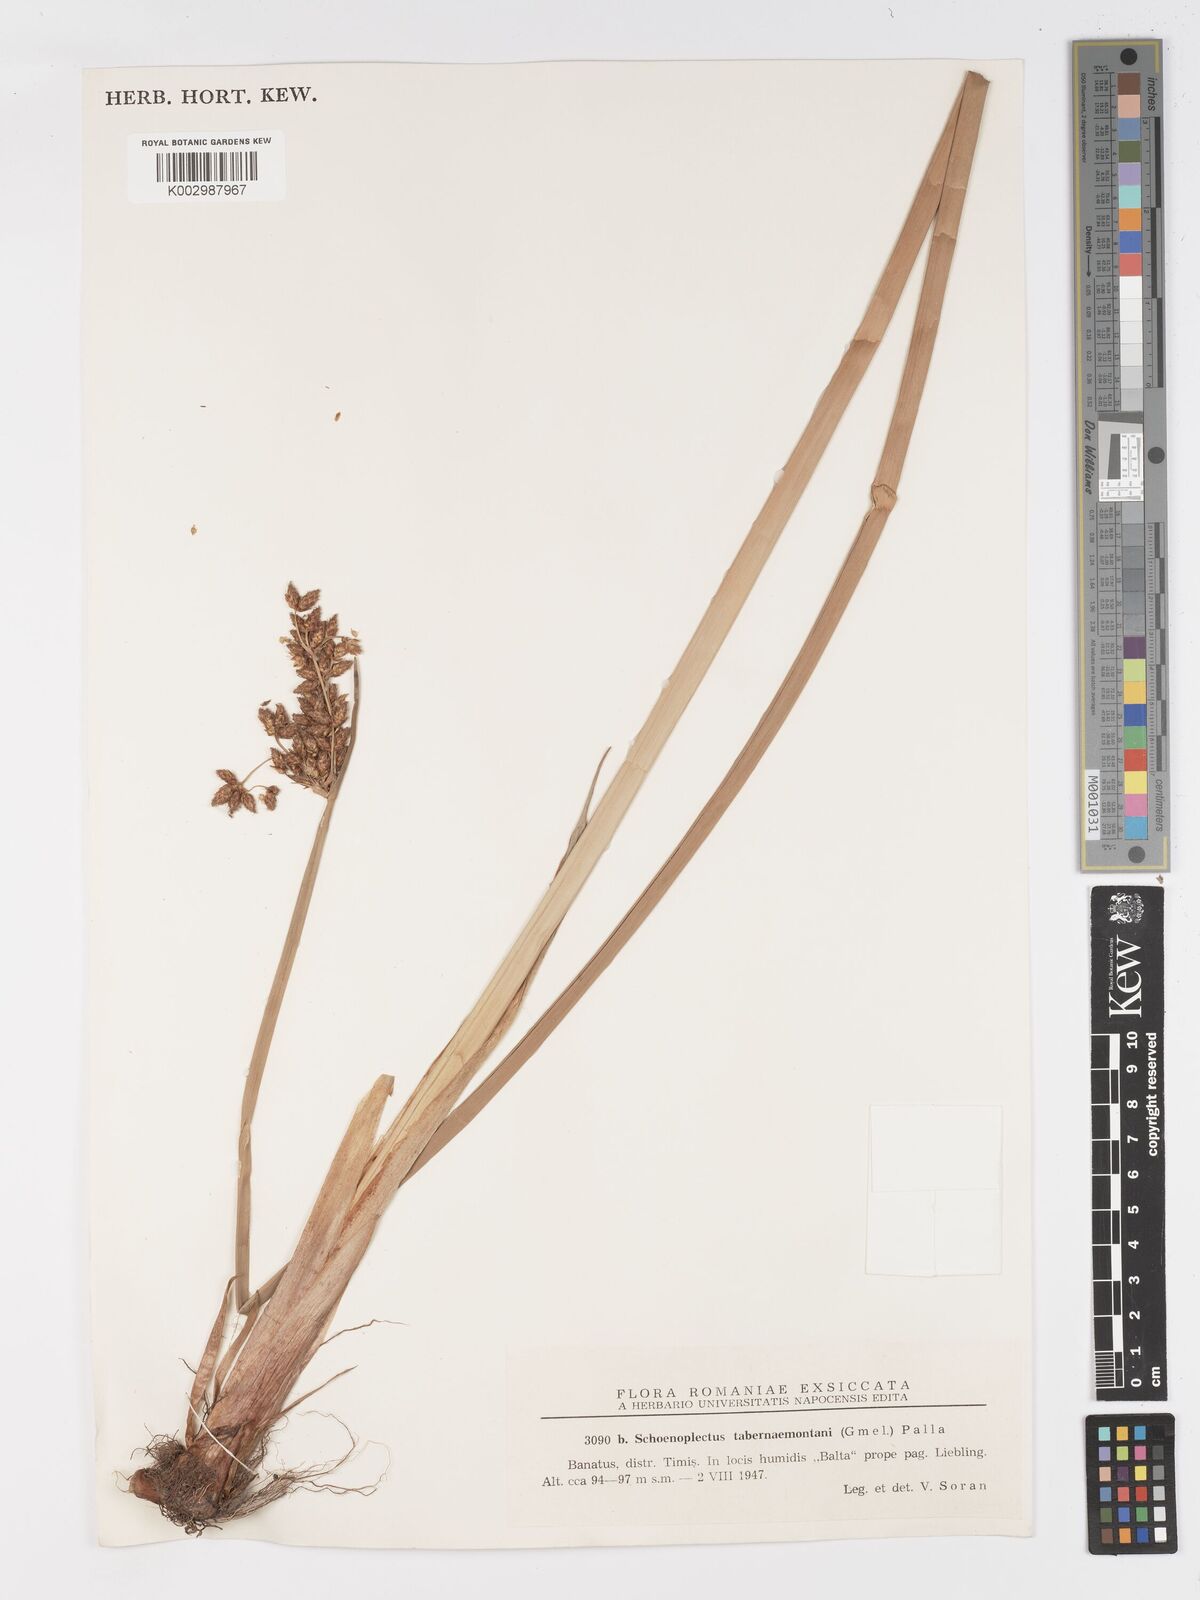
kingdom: Plantae
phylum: Tracheophyta
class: Liliopsida
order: Poales
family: Cyperaceae
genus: Schoenoplectus
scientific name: Schoenoplectus tabernaemontani
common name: Grey club-rush
